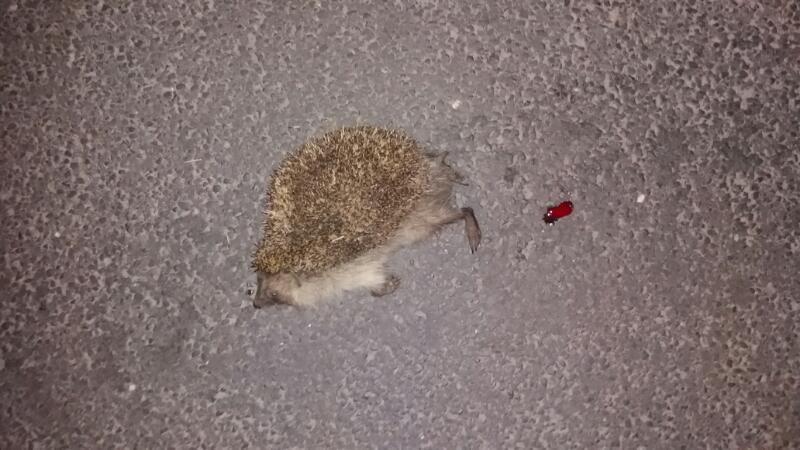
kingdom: Animalia
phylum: Chordata
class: Mammalia
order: Erinaceomorpha
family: Erinaceidae
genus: Erinaceus
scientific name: Erinaceus
